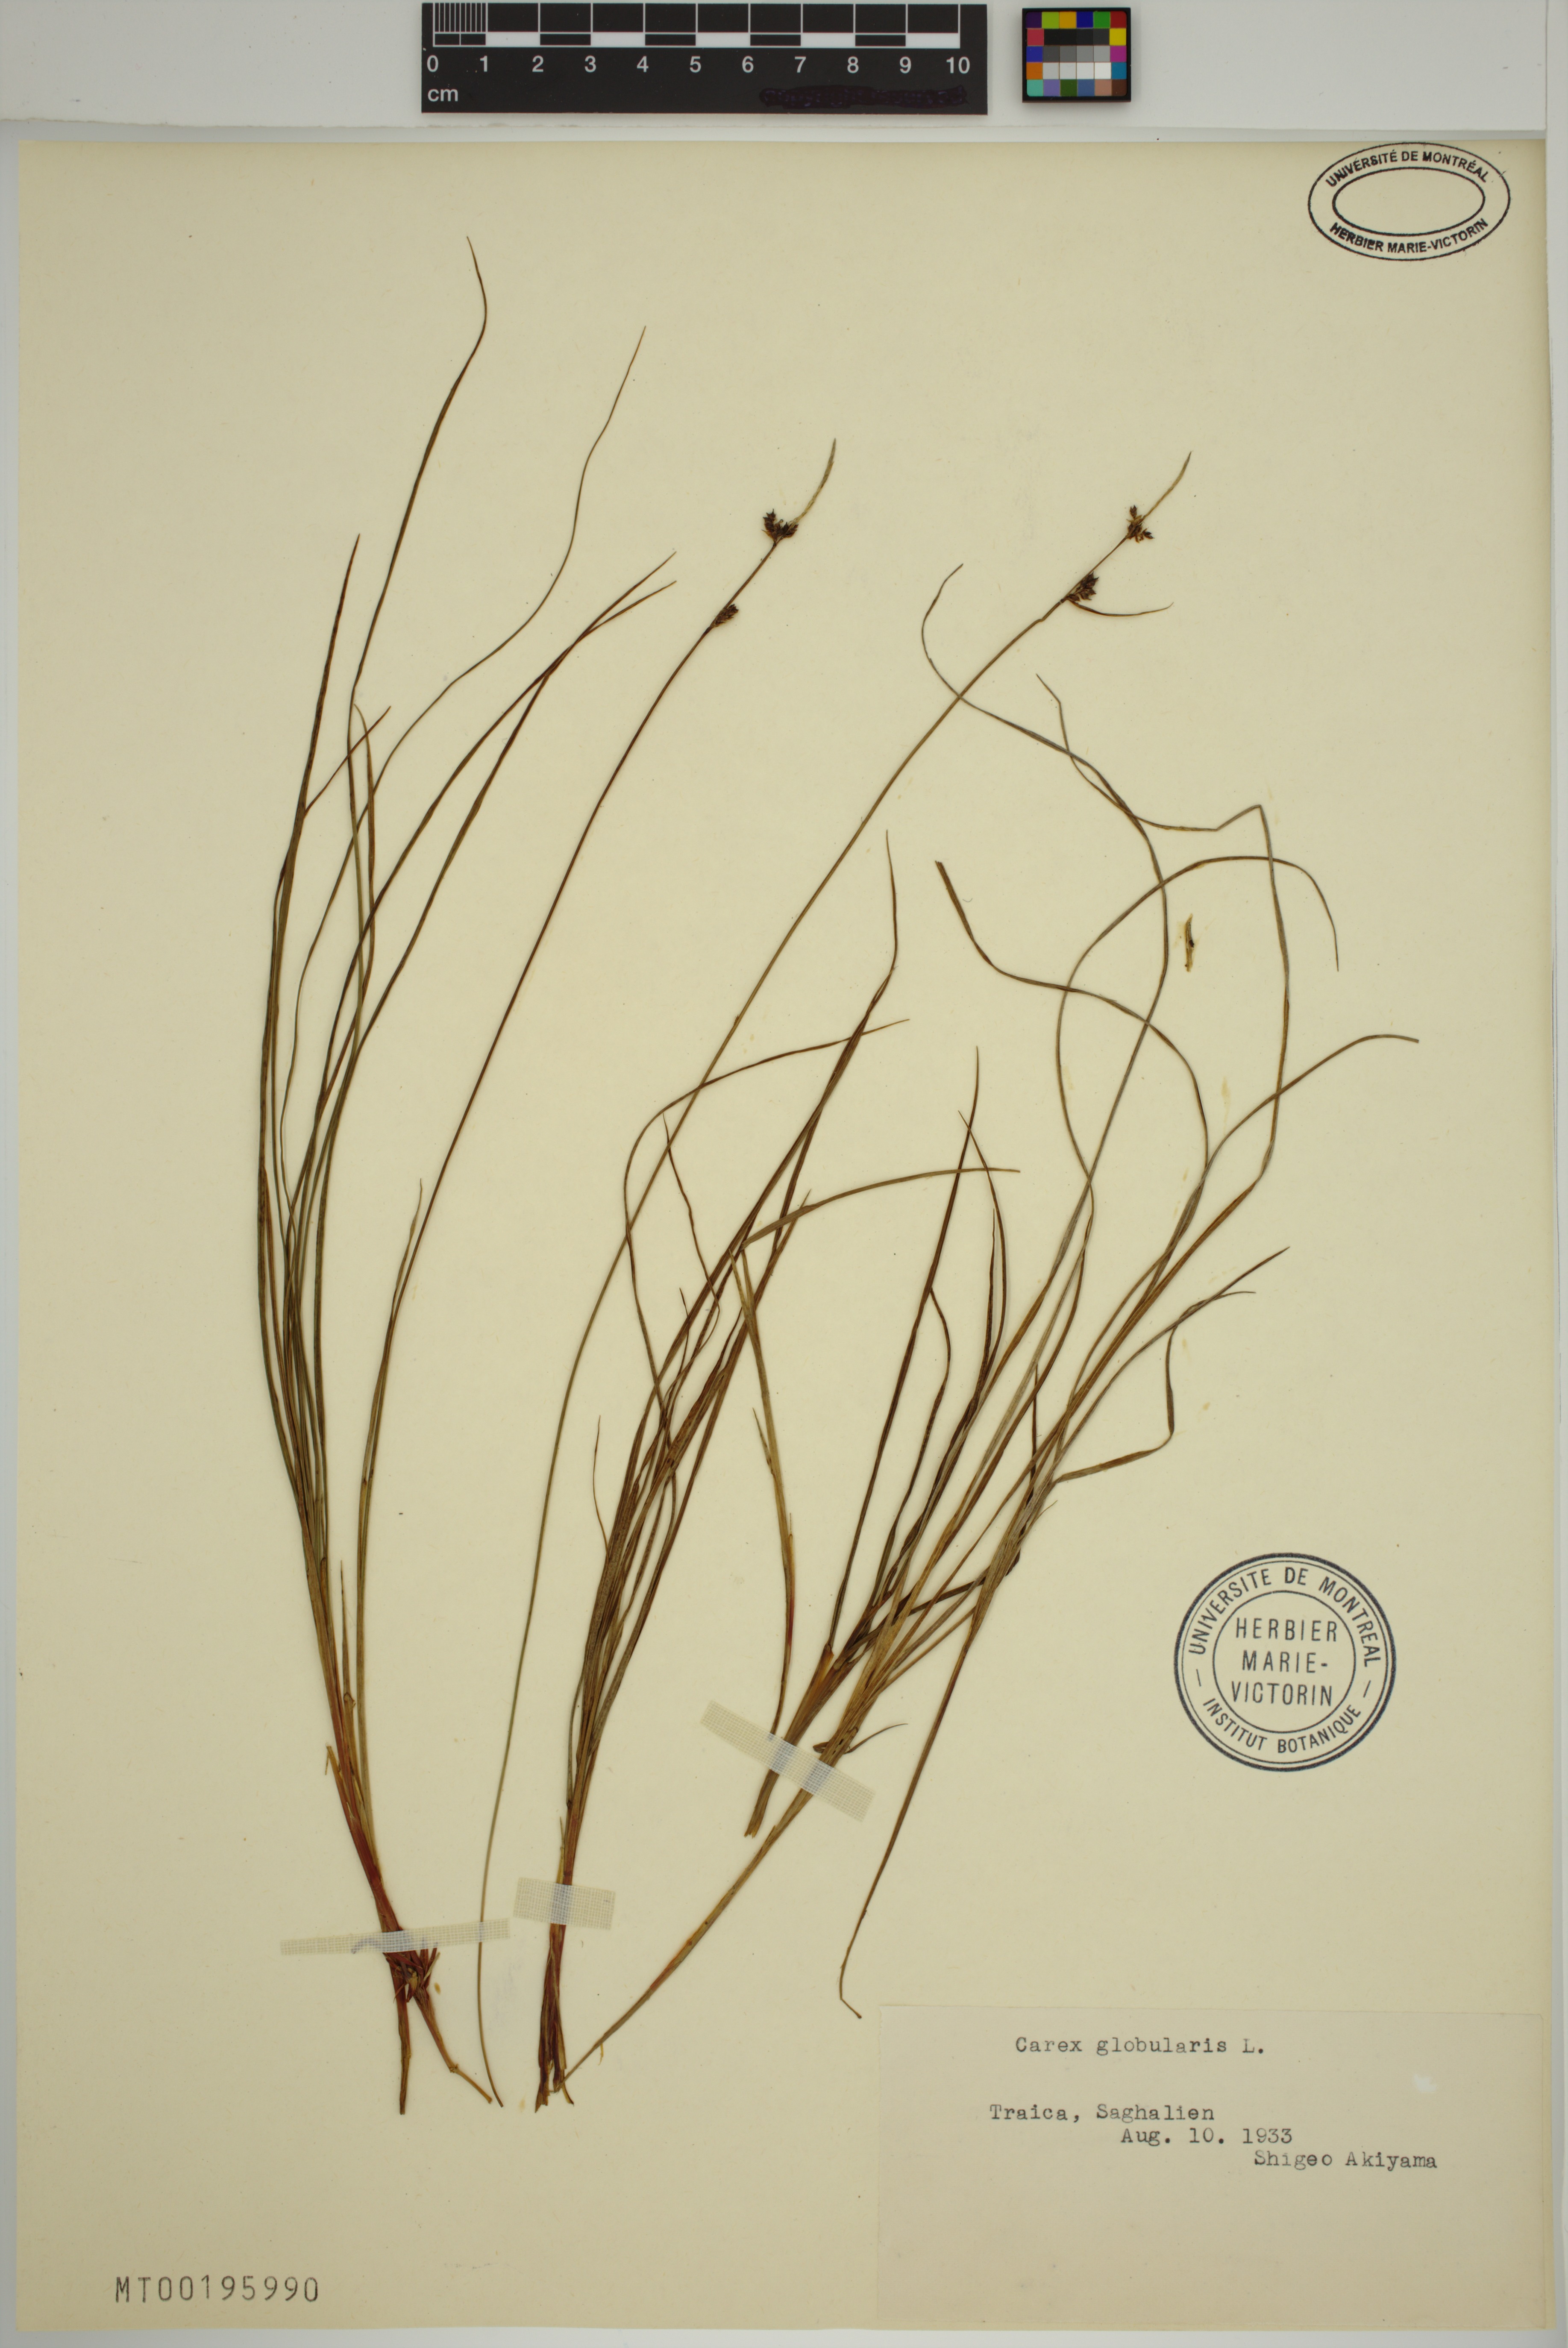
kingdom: Plantae
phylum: Tracheophyta
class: Liliopsida
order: Poales
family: Cyperaceae
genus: Carex
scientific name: Carex globularis
